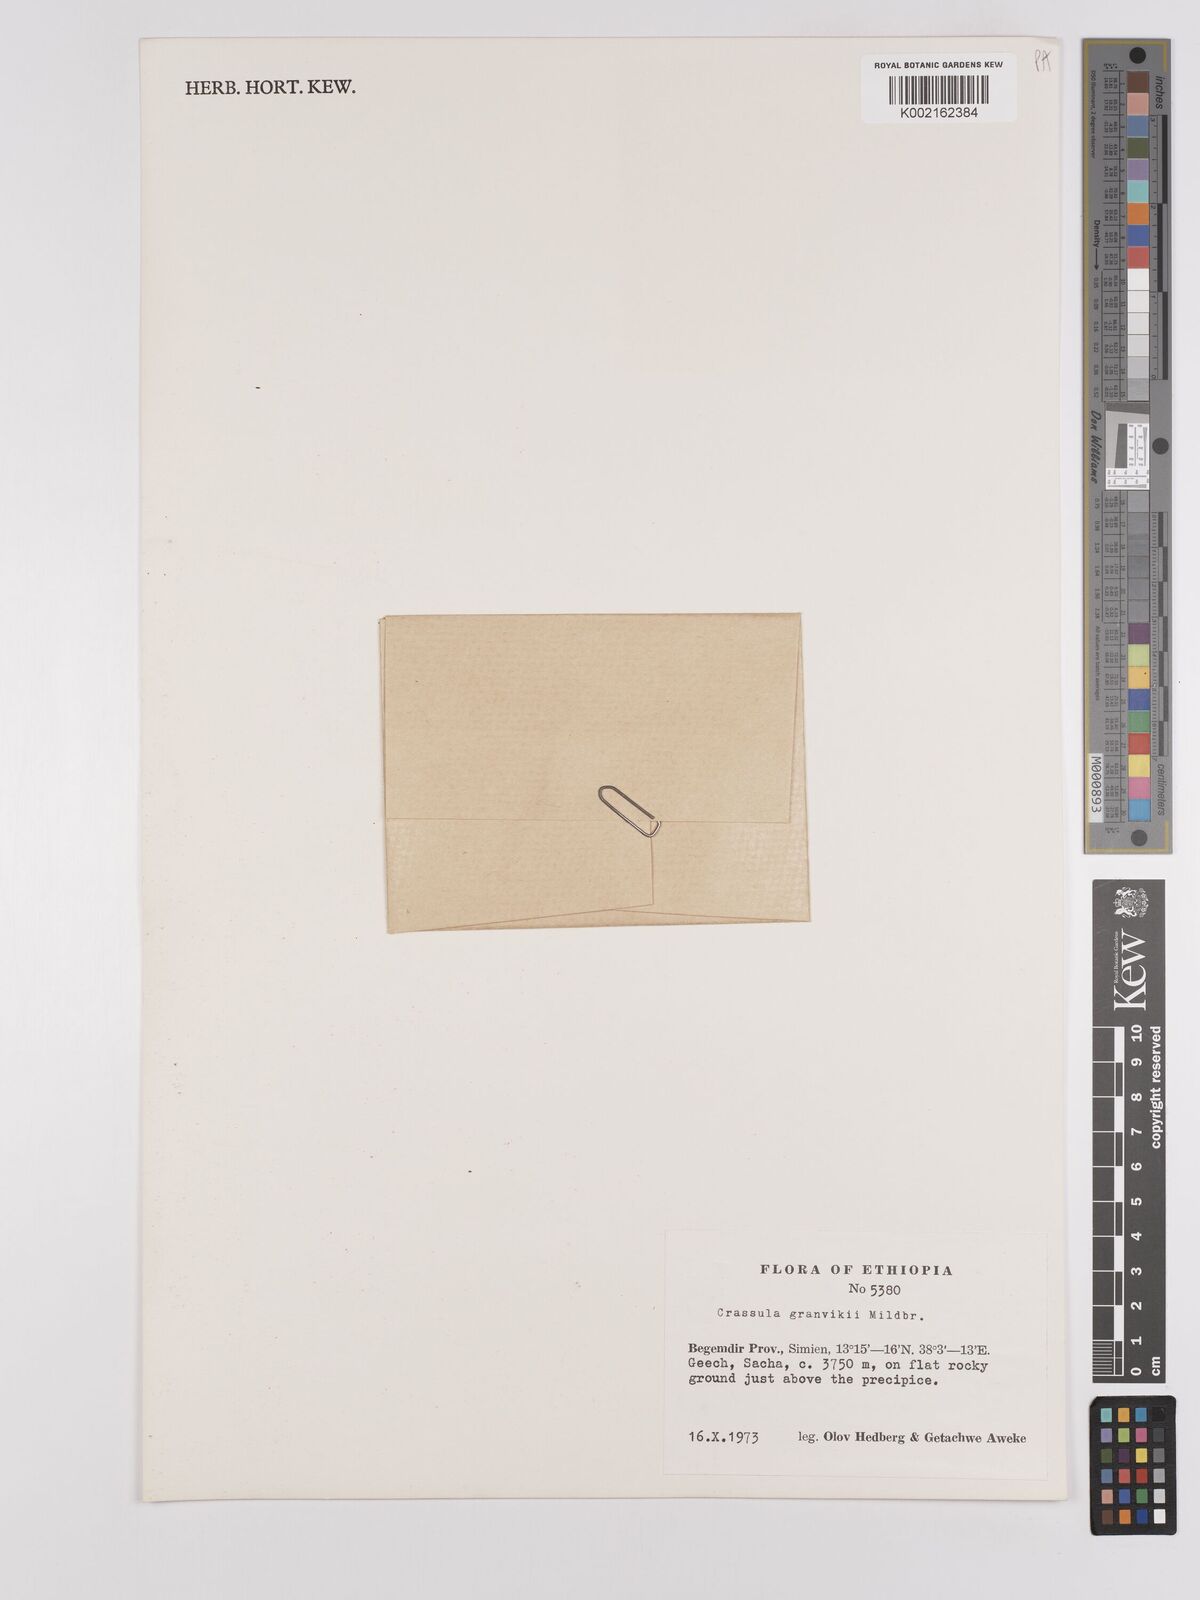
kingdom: Plantae
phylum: Tracheophyta
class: Magnoliopsida
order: Saxifragales
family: Crassulaceae
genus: Crassula
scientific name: Crassula granvikii
